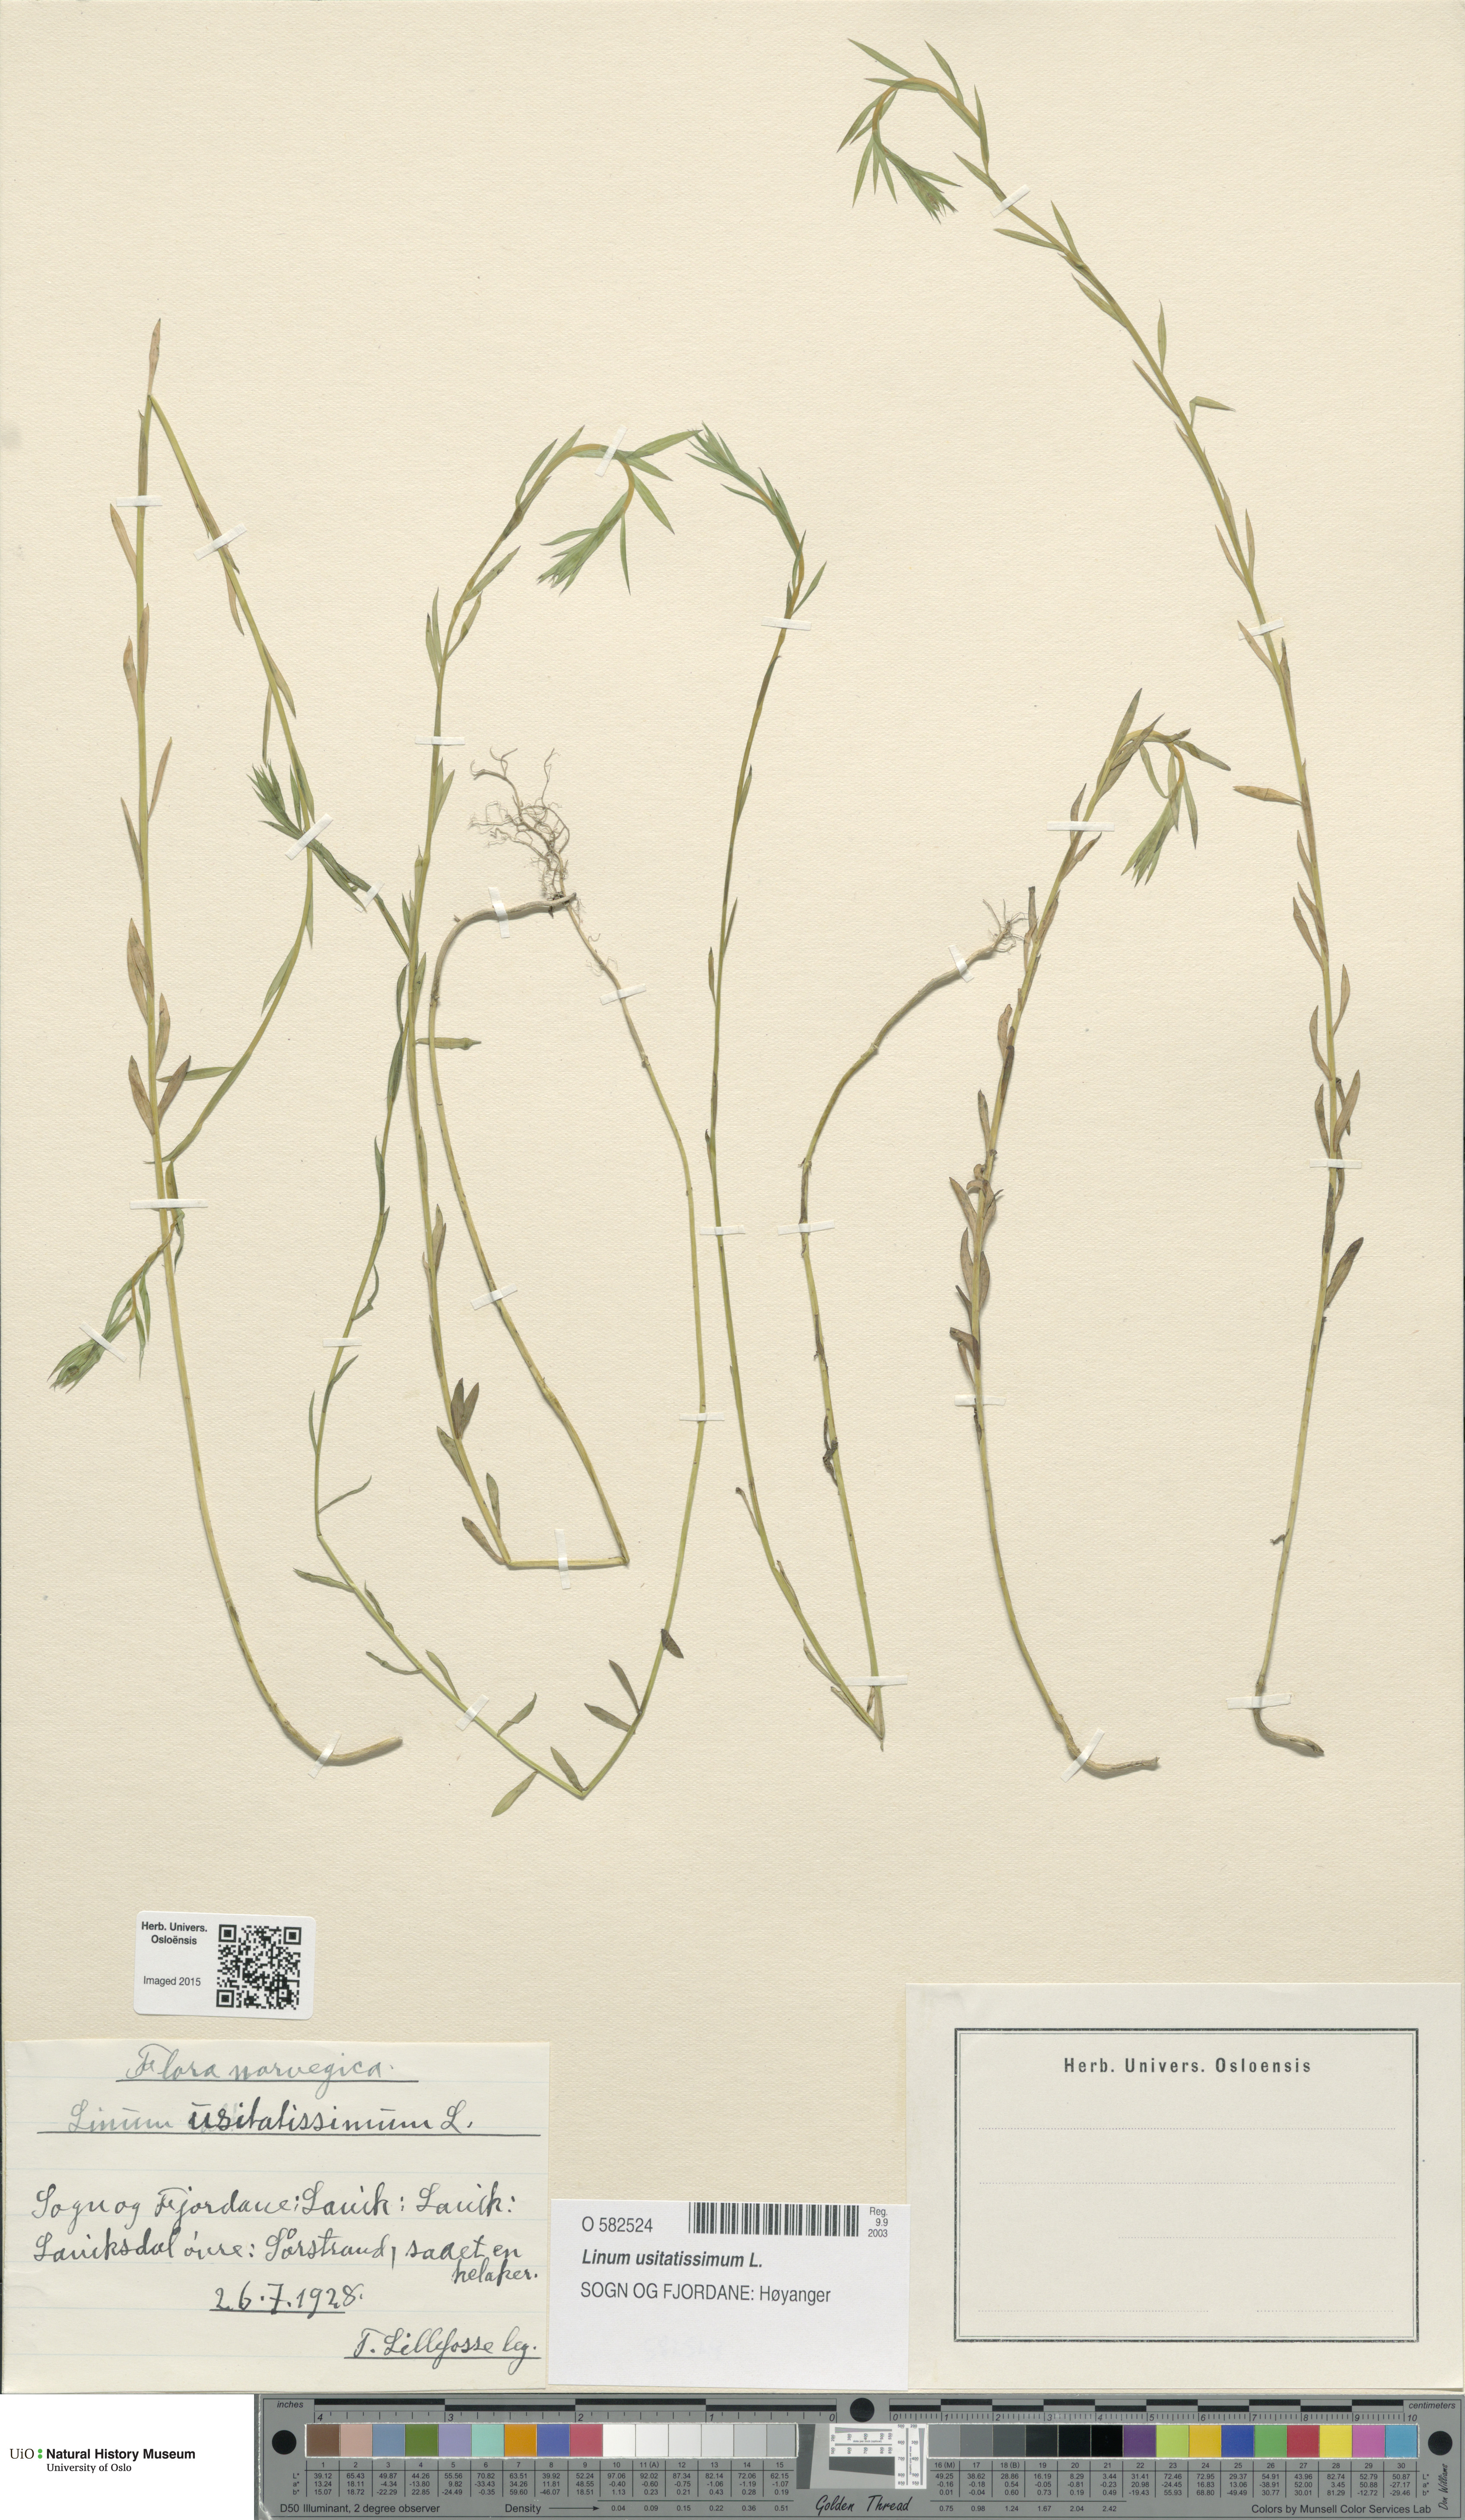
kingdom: Plantae
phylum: Tracheophyta
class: Magnoliopsida
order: Malpighiales
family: Linaceae
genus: Linum
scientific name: Linum usitatissimum
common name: Flax
